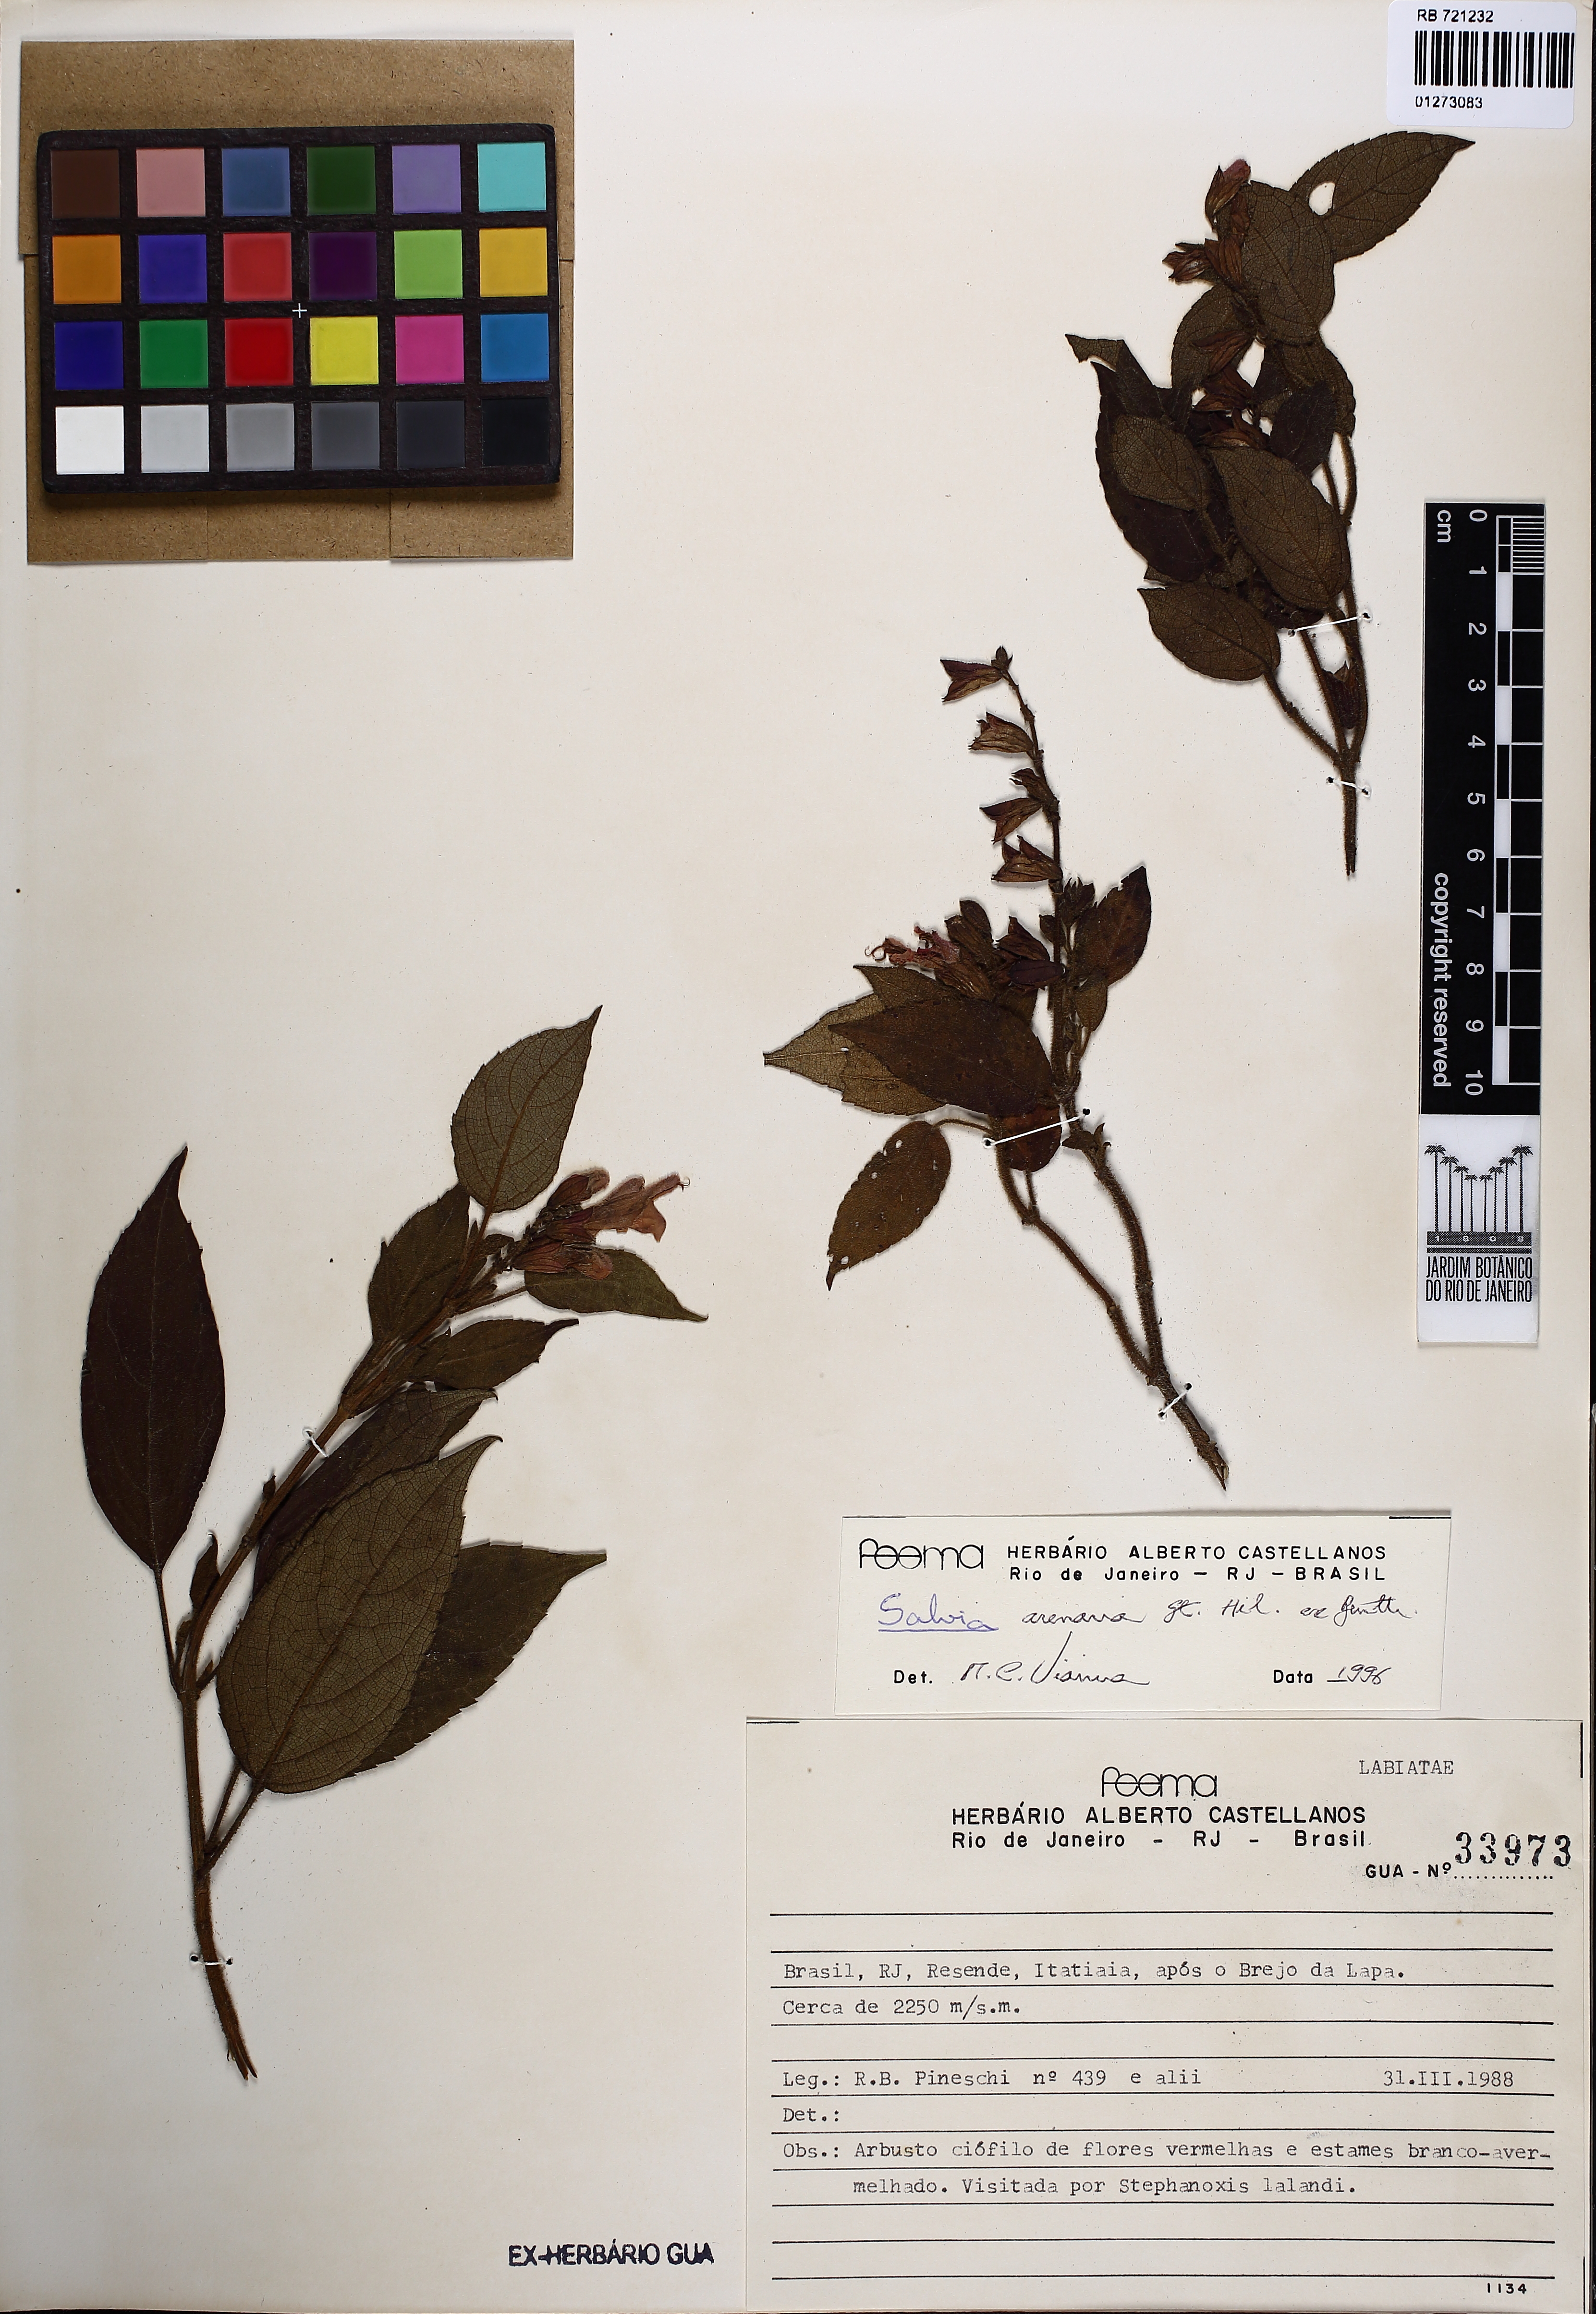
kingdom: Plantae
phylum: Tracheophyta
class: Magnoliopsida
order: Lamiales
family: Lamiaceae
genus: Salvia
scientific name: Salvia arenaria
